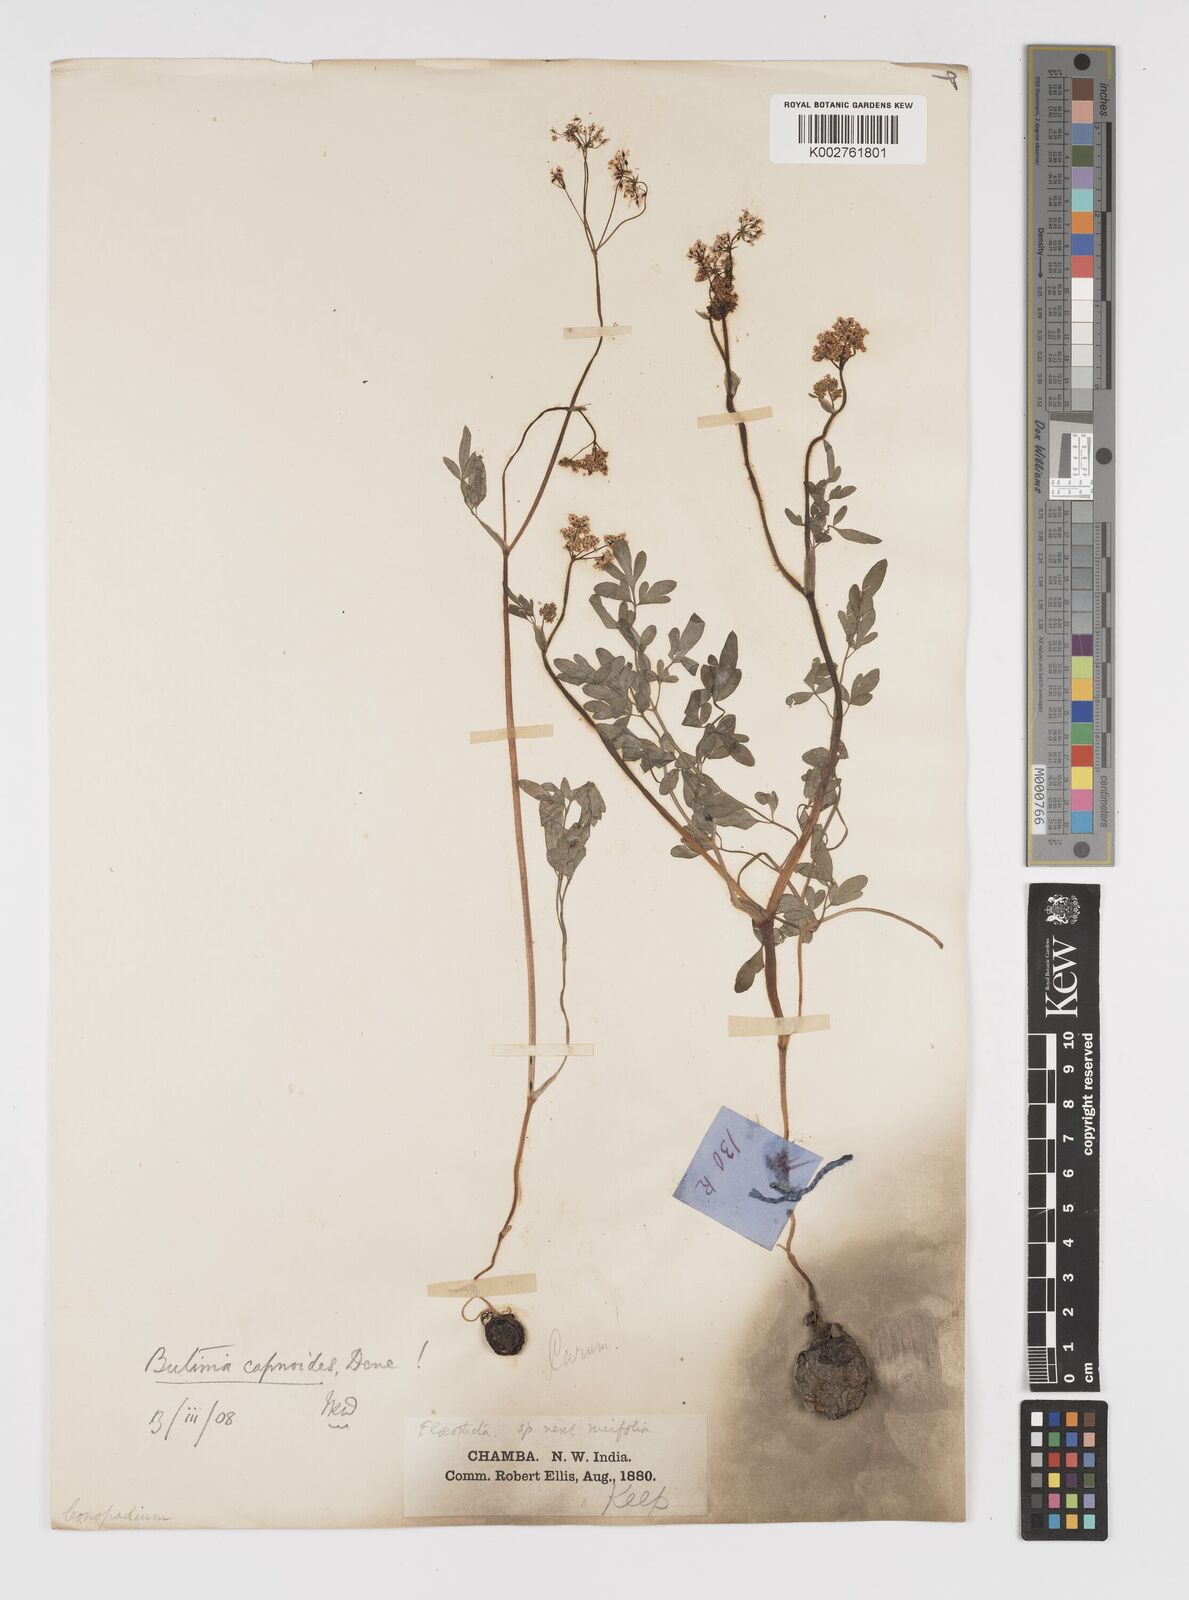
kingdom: Plantae
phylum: Tracheophyta
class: Magnoliopsida
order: Apiales
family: Apiaceae
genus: Kozlovia
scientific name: Kozlovia capnoides
